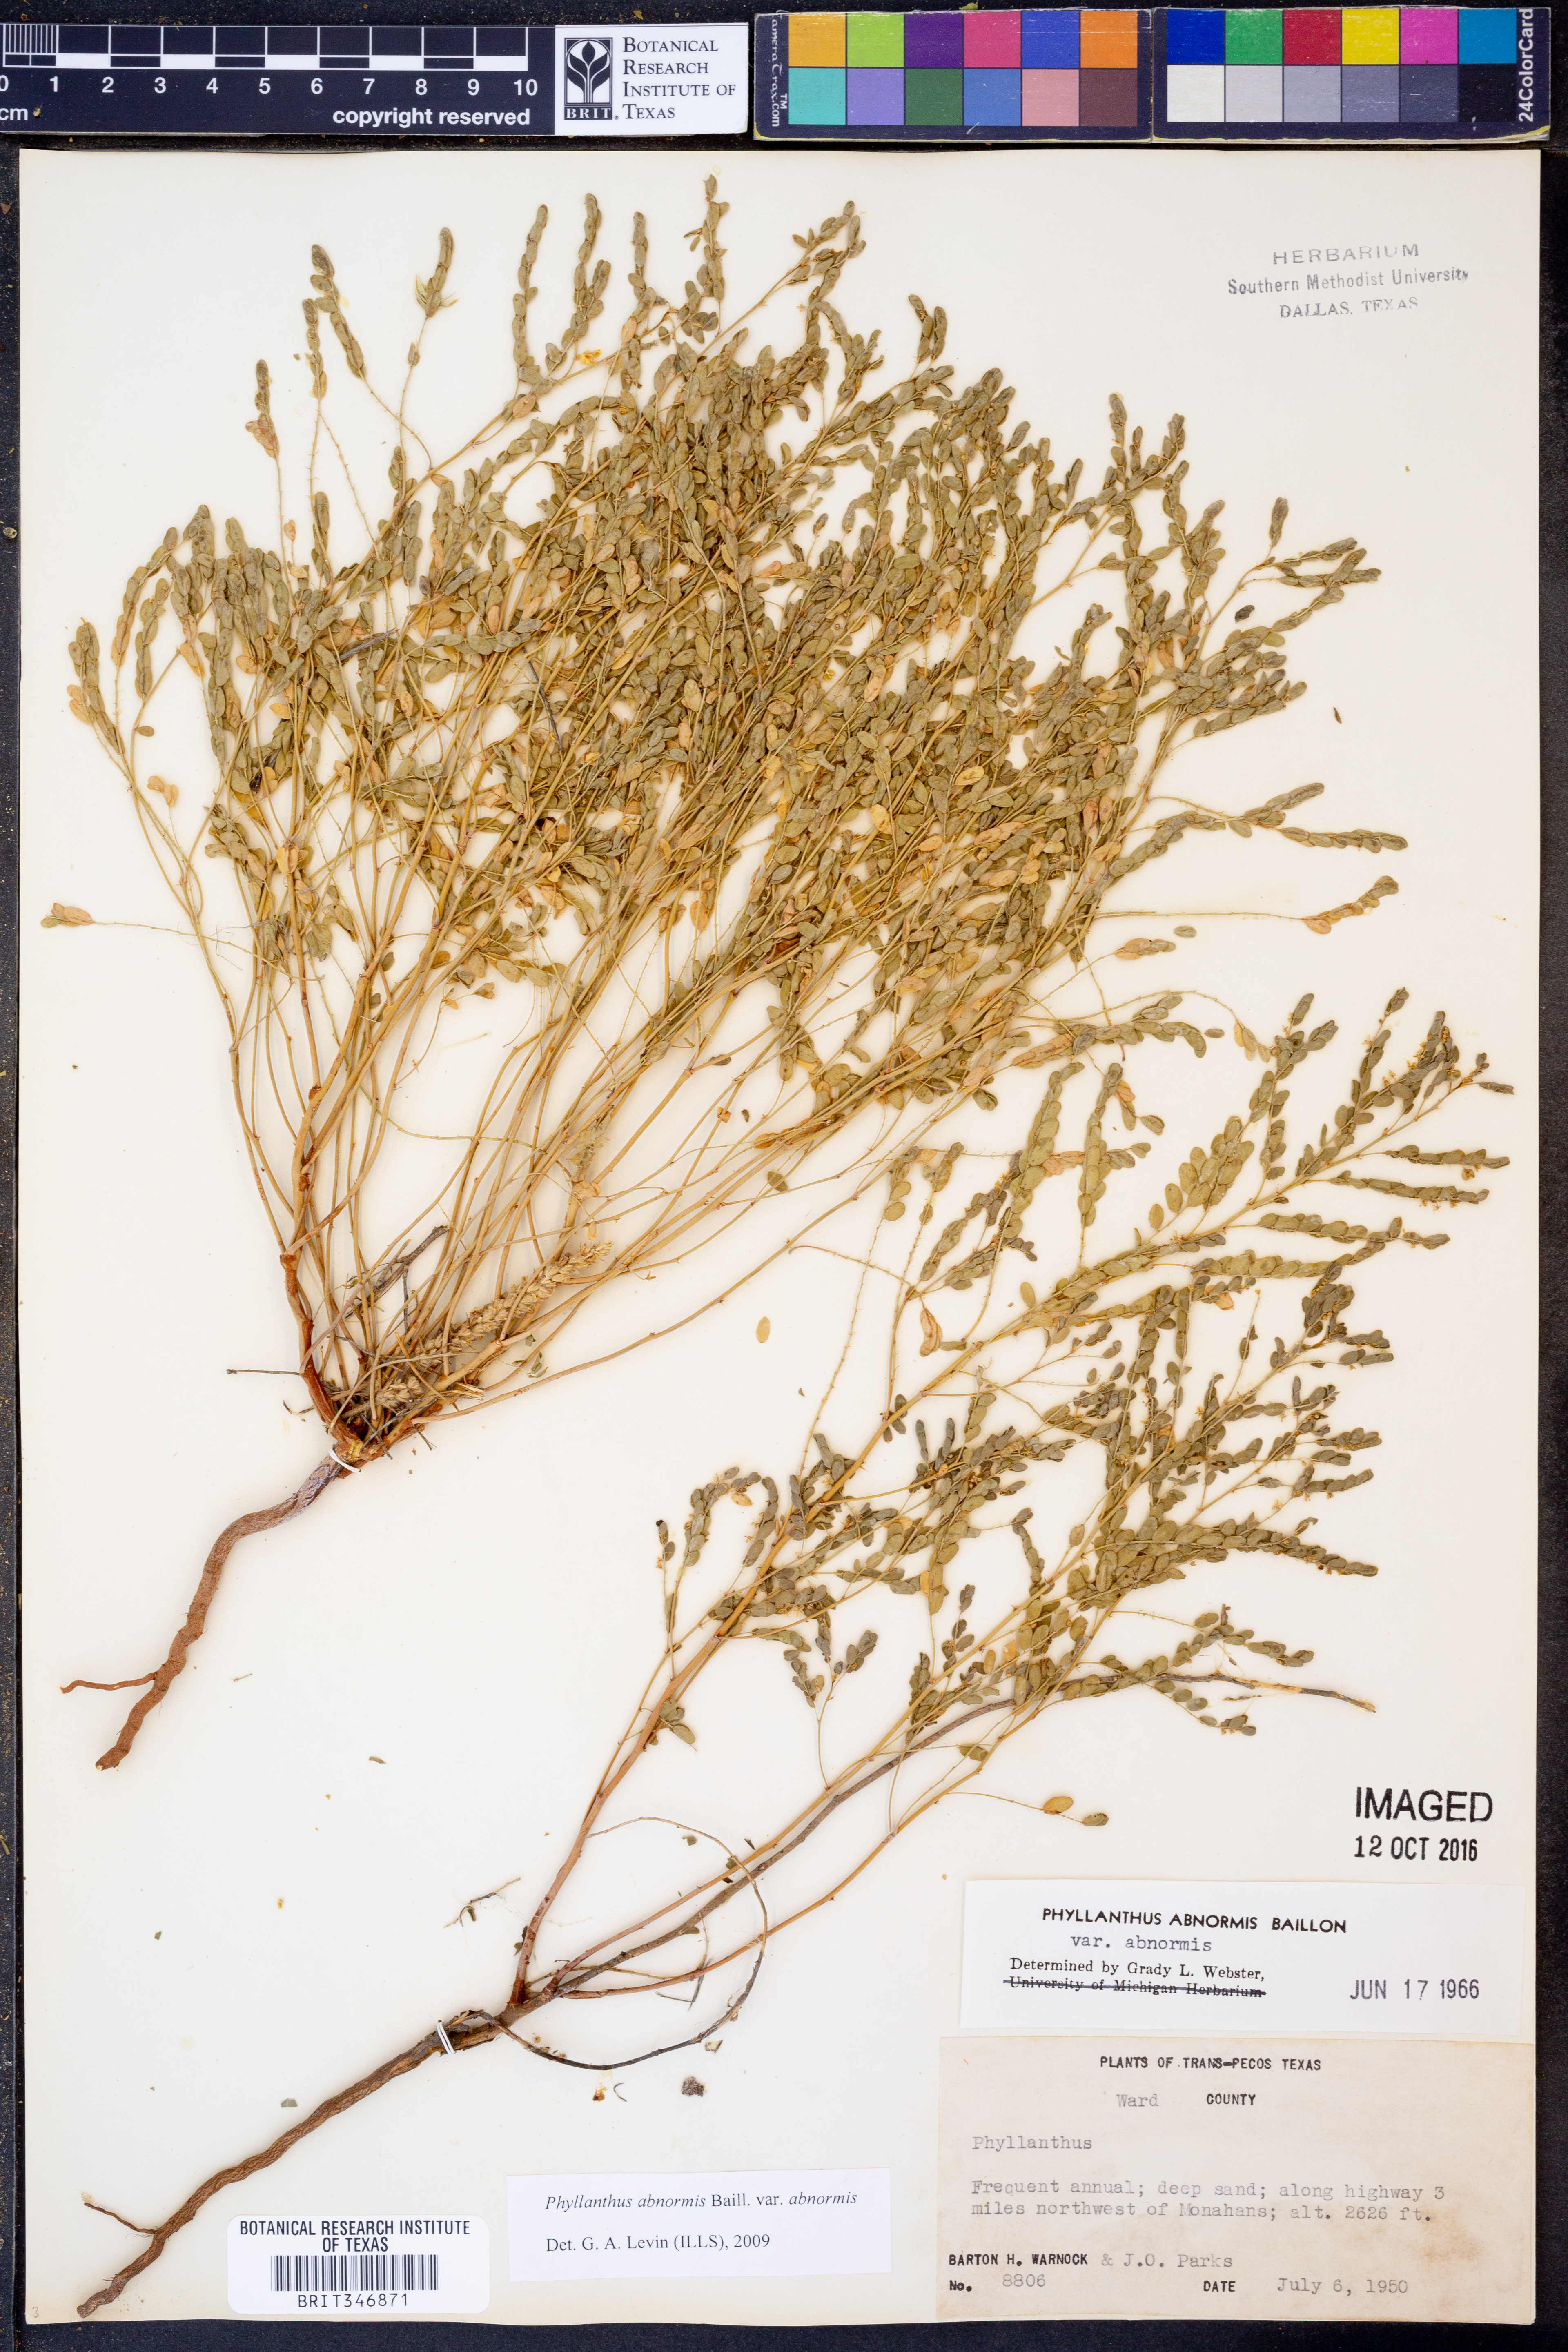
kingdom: Plantae
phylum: Tracheophyta
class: Magnoliopsida
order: Malpighiales
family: Phyllanthaceae
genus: Phyllanthus
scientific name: Phyllanthus abnormis
